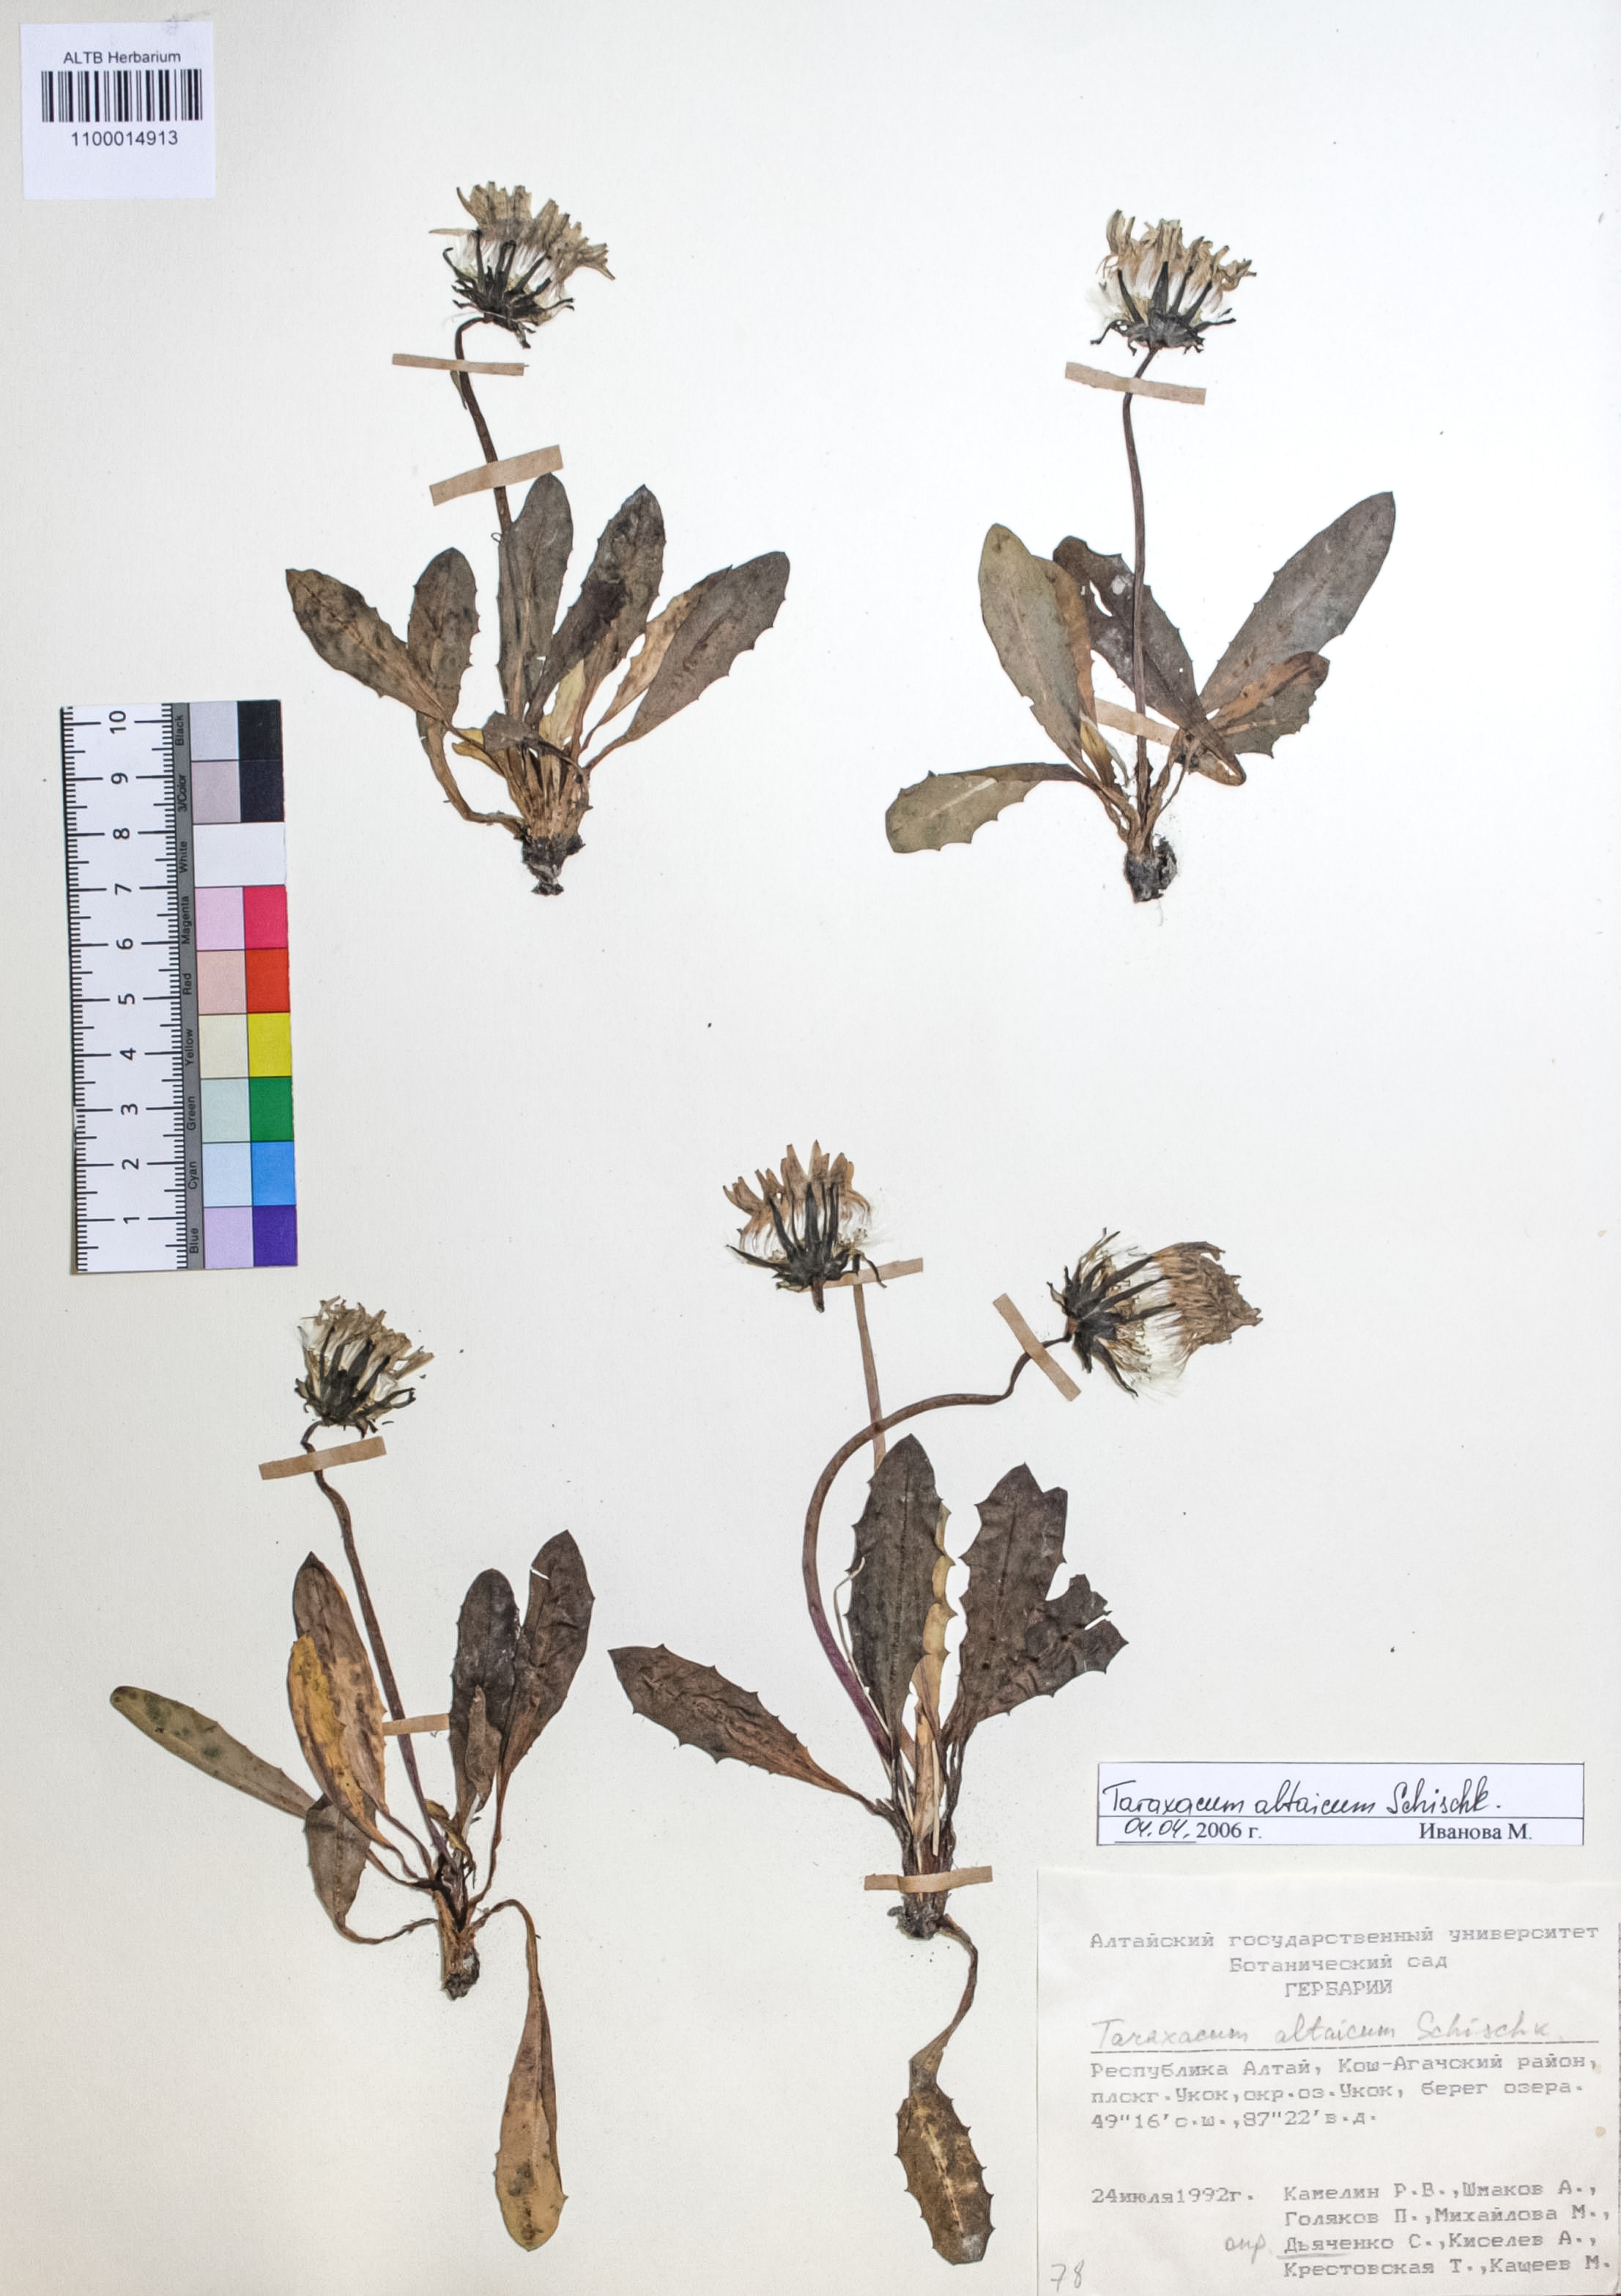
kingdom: Plantae
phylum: Tracheophyta
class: Magnoliopsida
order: Asterales
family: Asteraceae
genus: Taraxacum
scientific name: Taraxacum ceratophorum
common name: Horn-bearing dandelion
